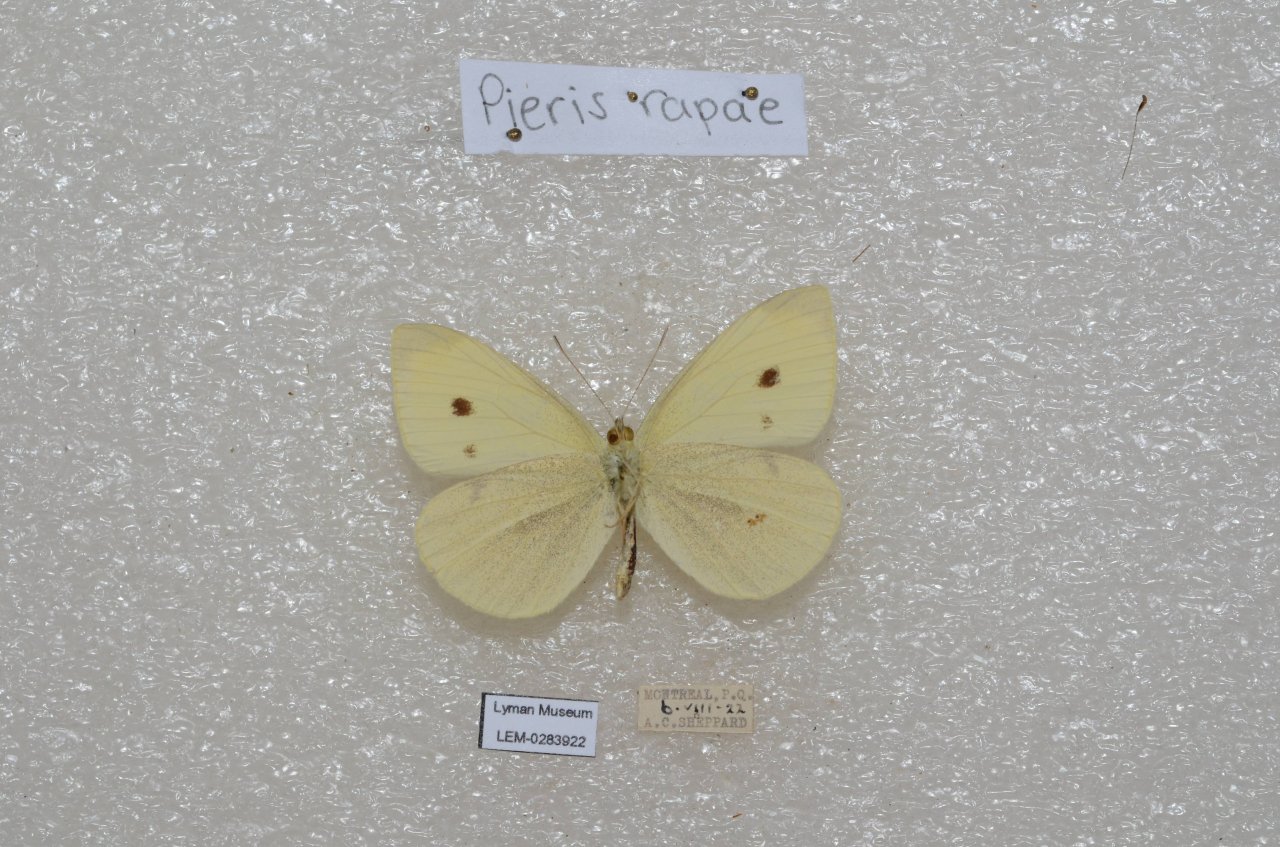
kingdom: Animalia
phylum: Arthropoda
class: Insecta
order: Lepidoptera
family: Pieridae
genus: Pieris
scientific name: Pieris rapae
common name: Cabbage White
